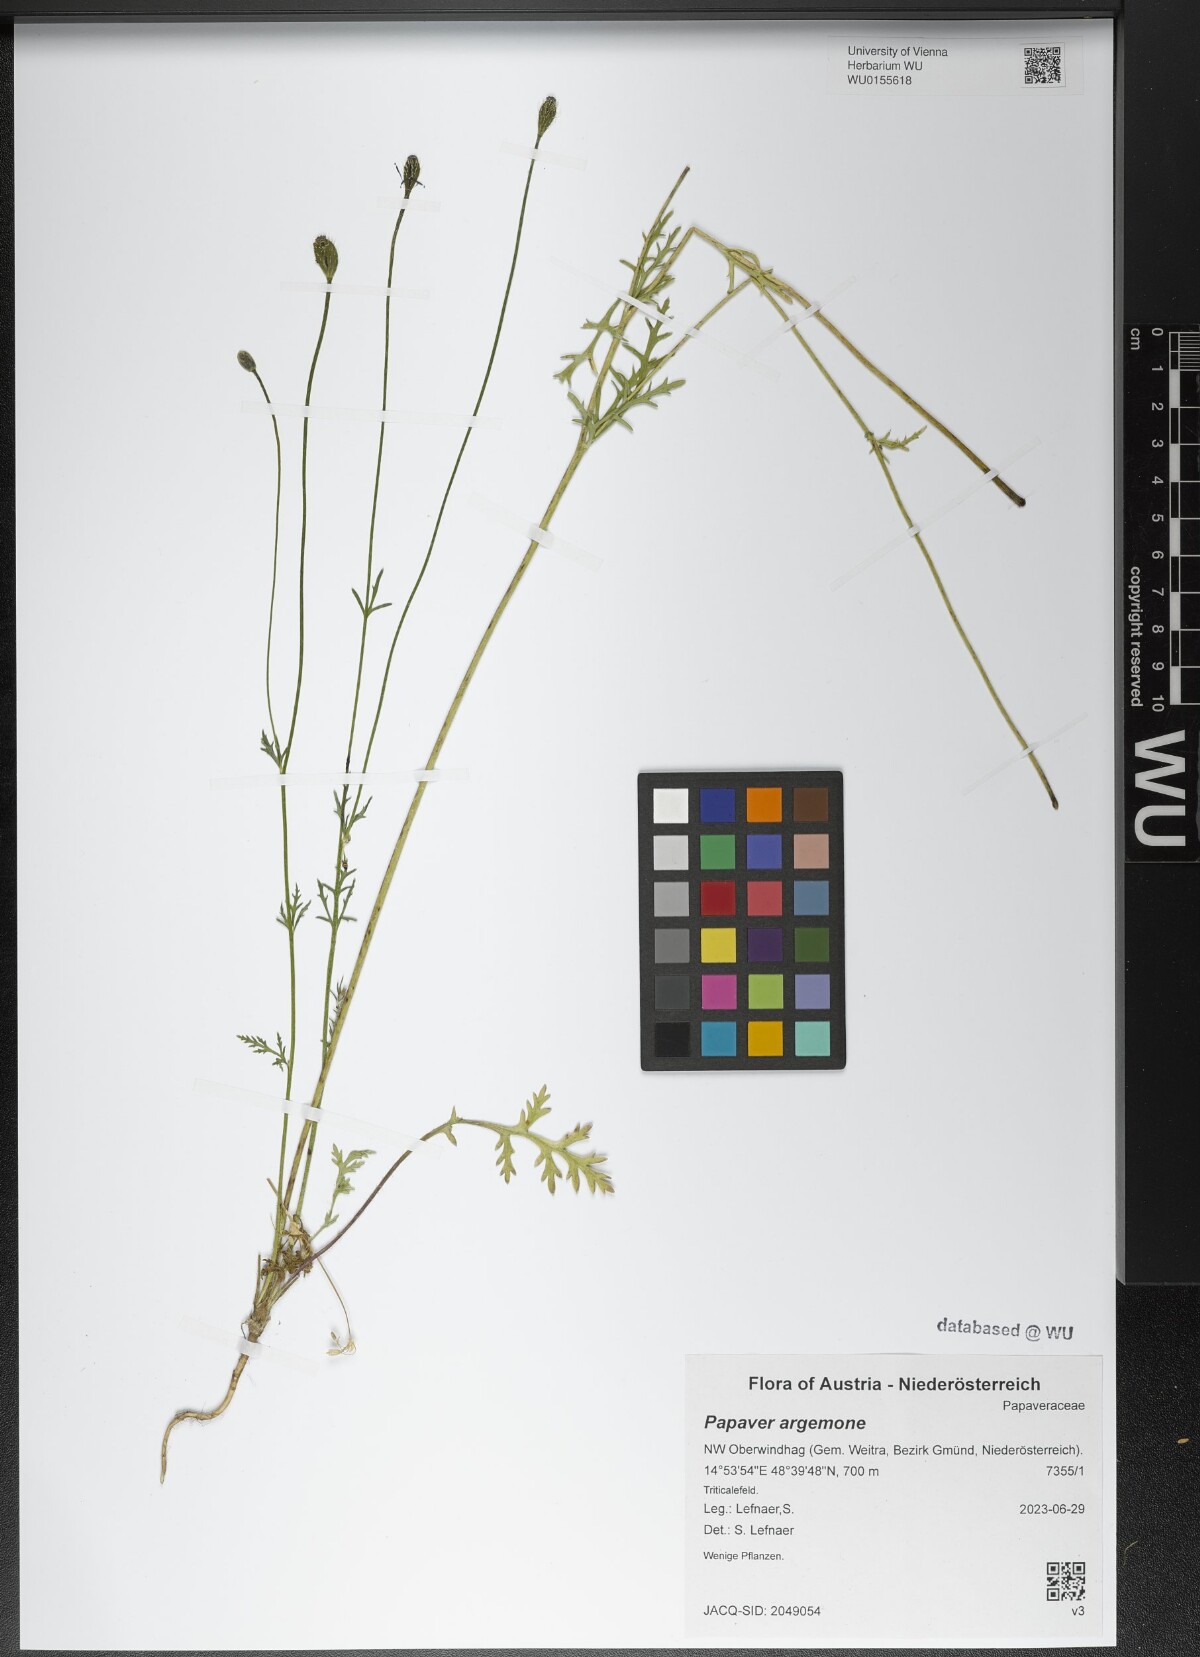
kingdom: Plantae
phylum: Tracheophyta
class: Magnoliopsida
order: Ranunculales
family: Papaveraceae
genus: Roemeria
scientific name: Roemeria argemone
